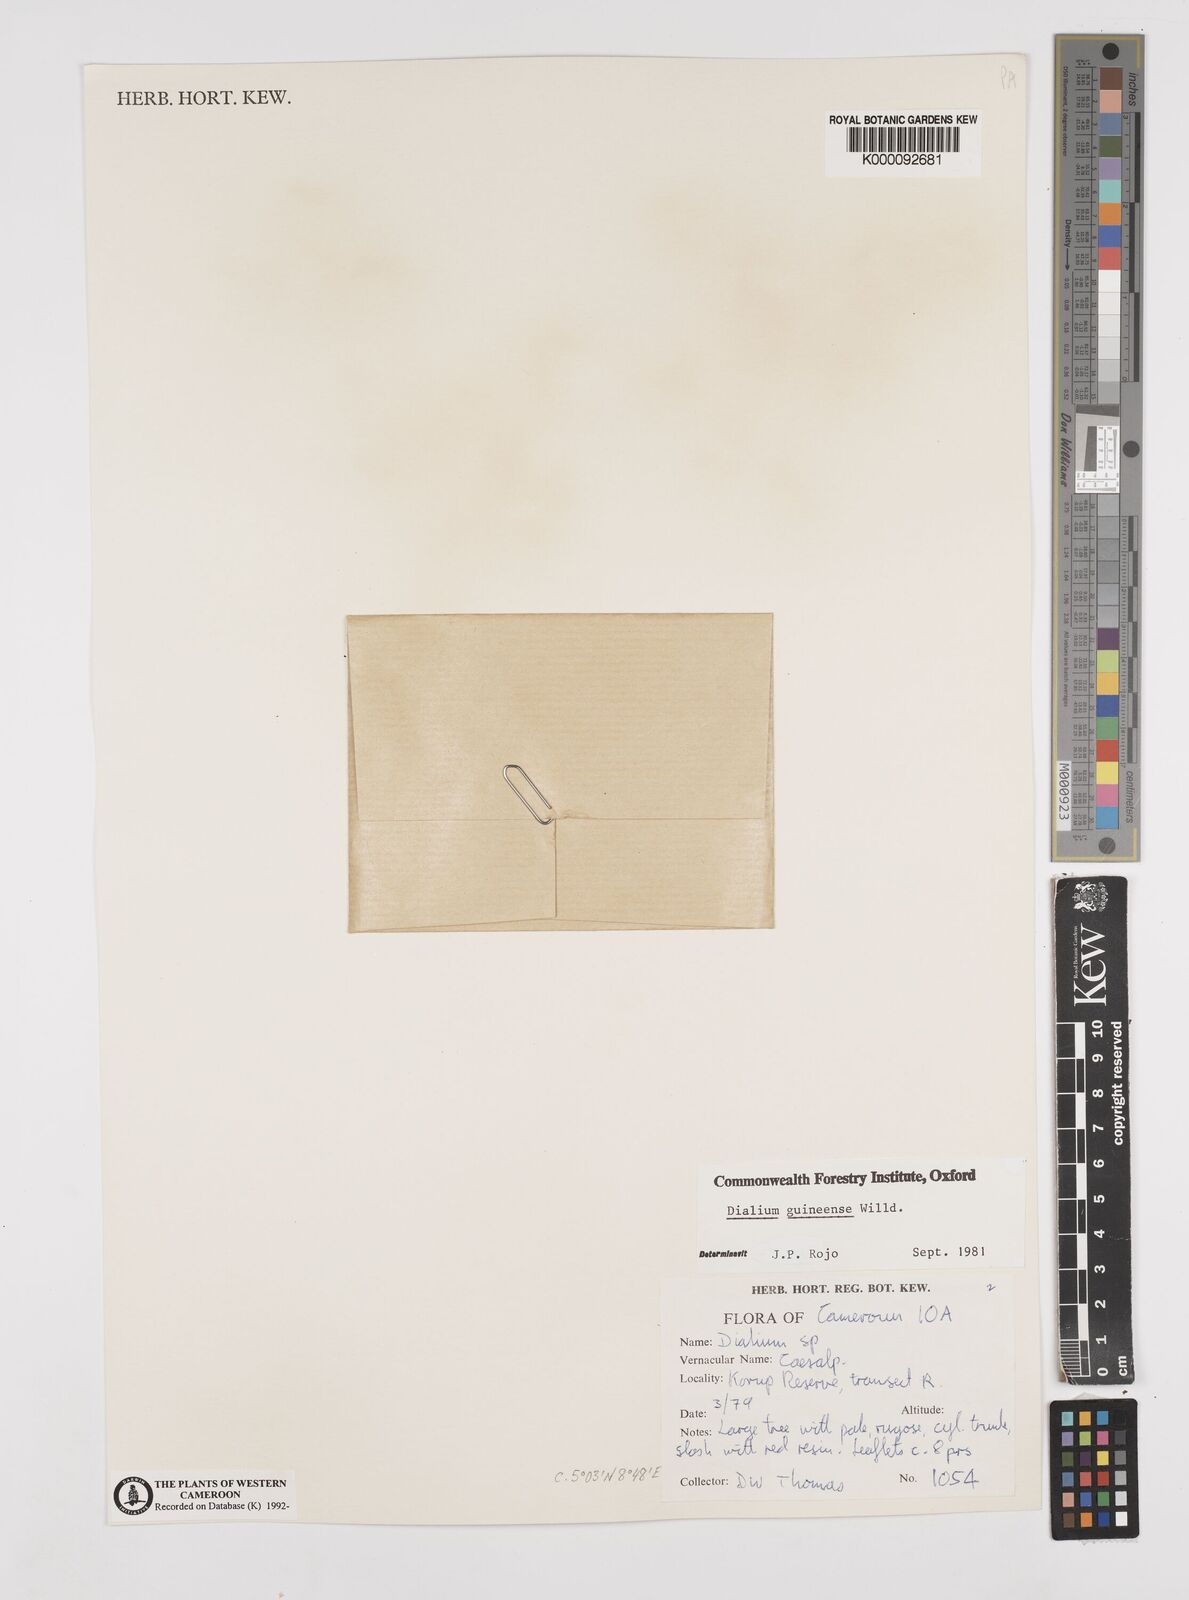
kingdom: Plantae
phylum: Tracheophyta
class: Magnoliopsida
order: Fabales
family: Fabaceae
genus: Dialium
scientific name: Dialium guineense
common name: Sierra leone-tamarind
